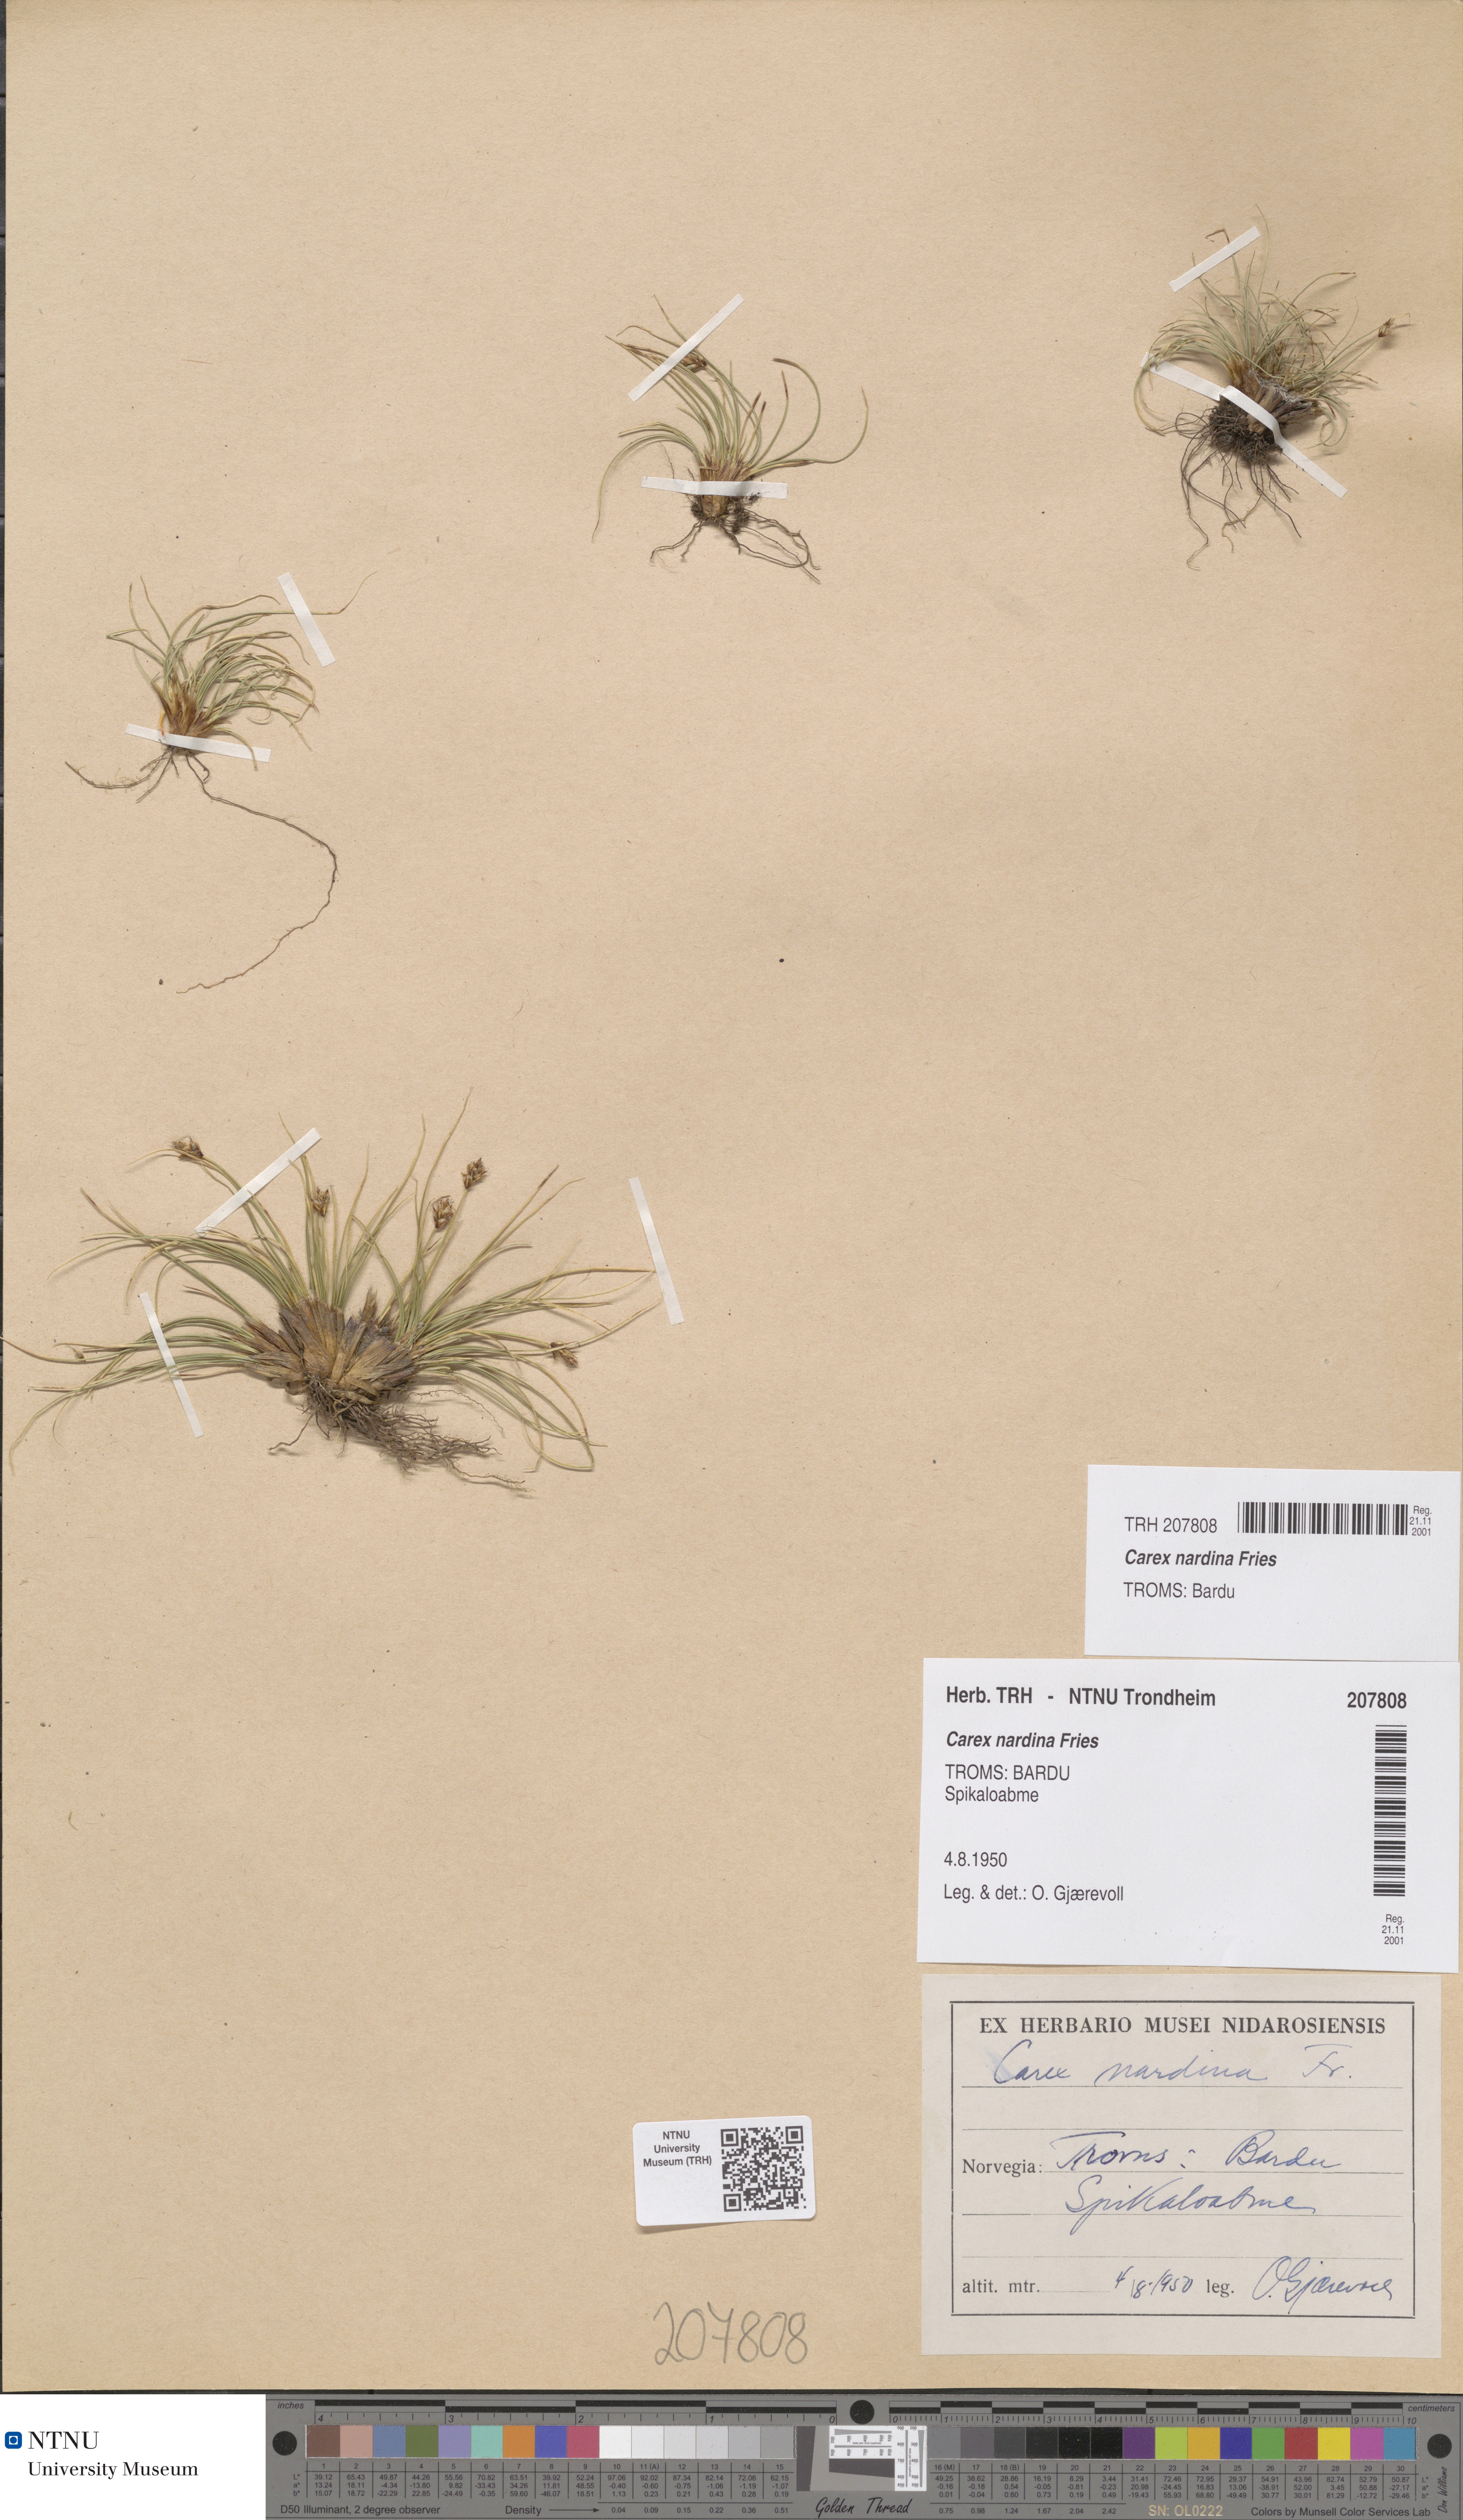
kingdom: Plantae
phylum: Tracheophyta
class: Liliopsida
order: Poales
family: Cyperaceae
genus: Carex
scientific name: Carex nardina
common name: Nard sedge
